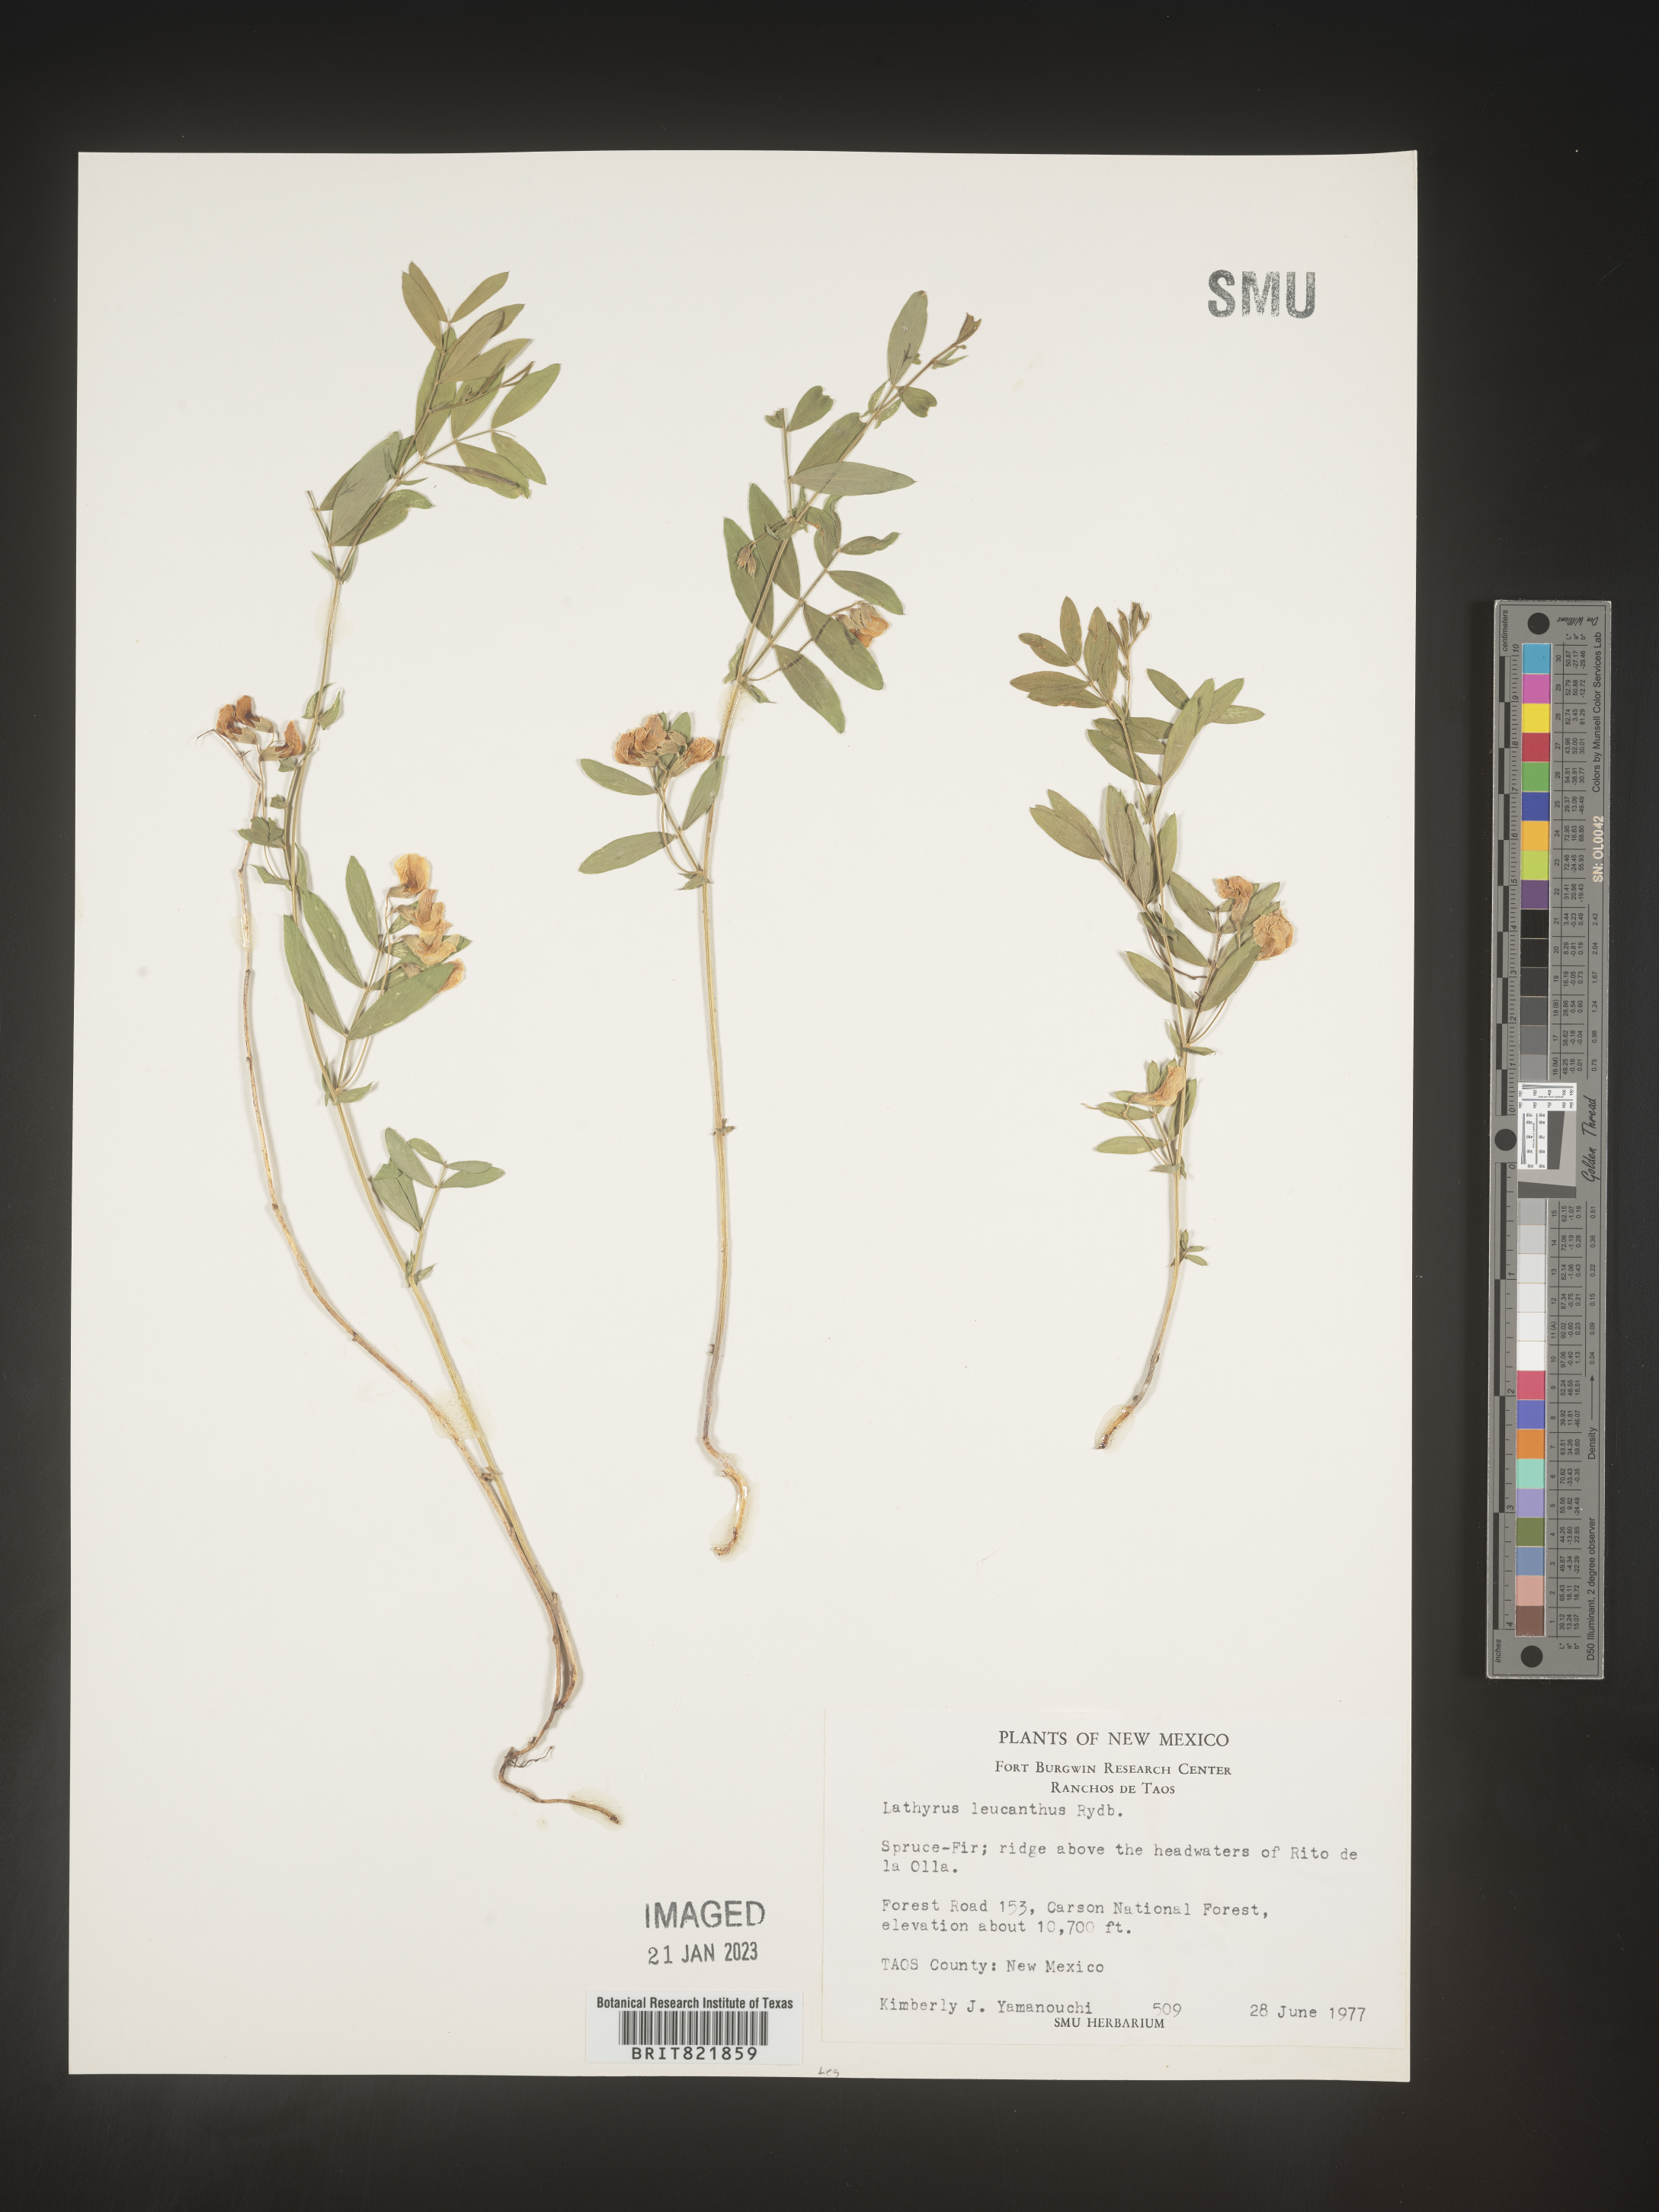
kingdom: Plantae
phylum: Tracheophyta
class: Magnoliopsida
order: Fabales
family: Fabaceae
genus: Lathyrus
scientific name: Lathyrus latifolius
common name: Perennial pea
